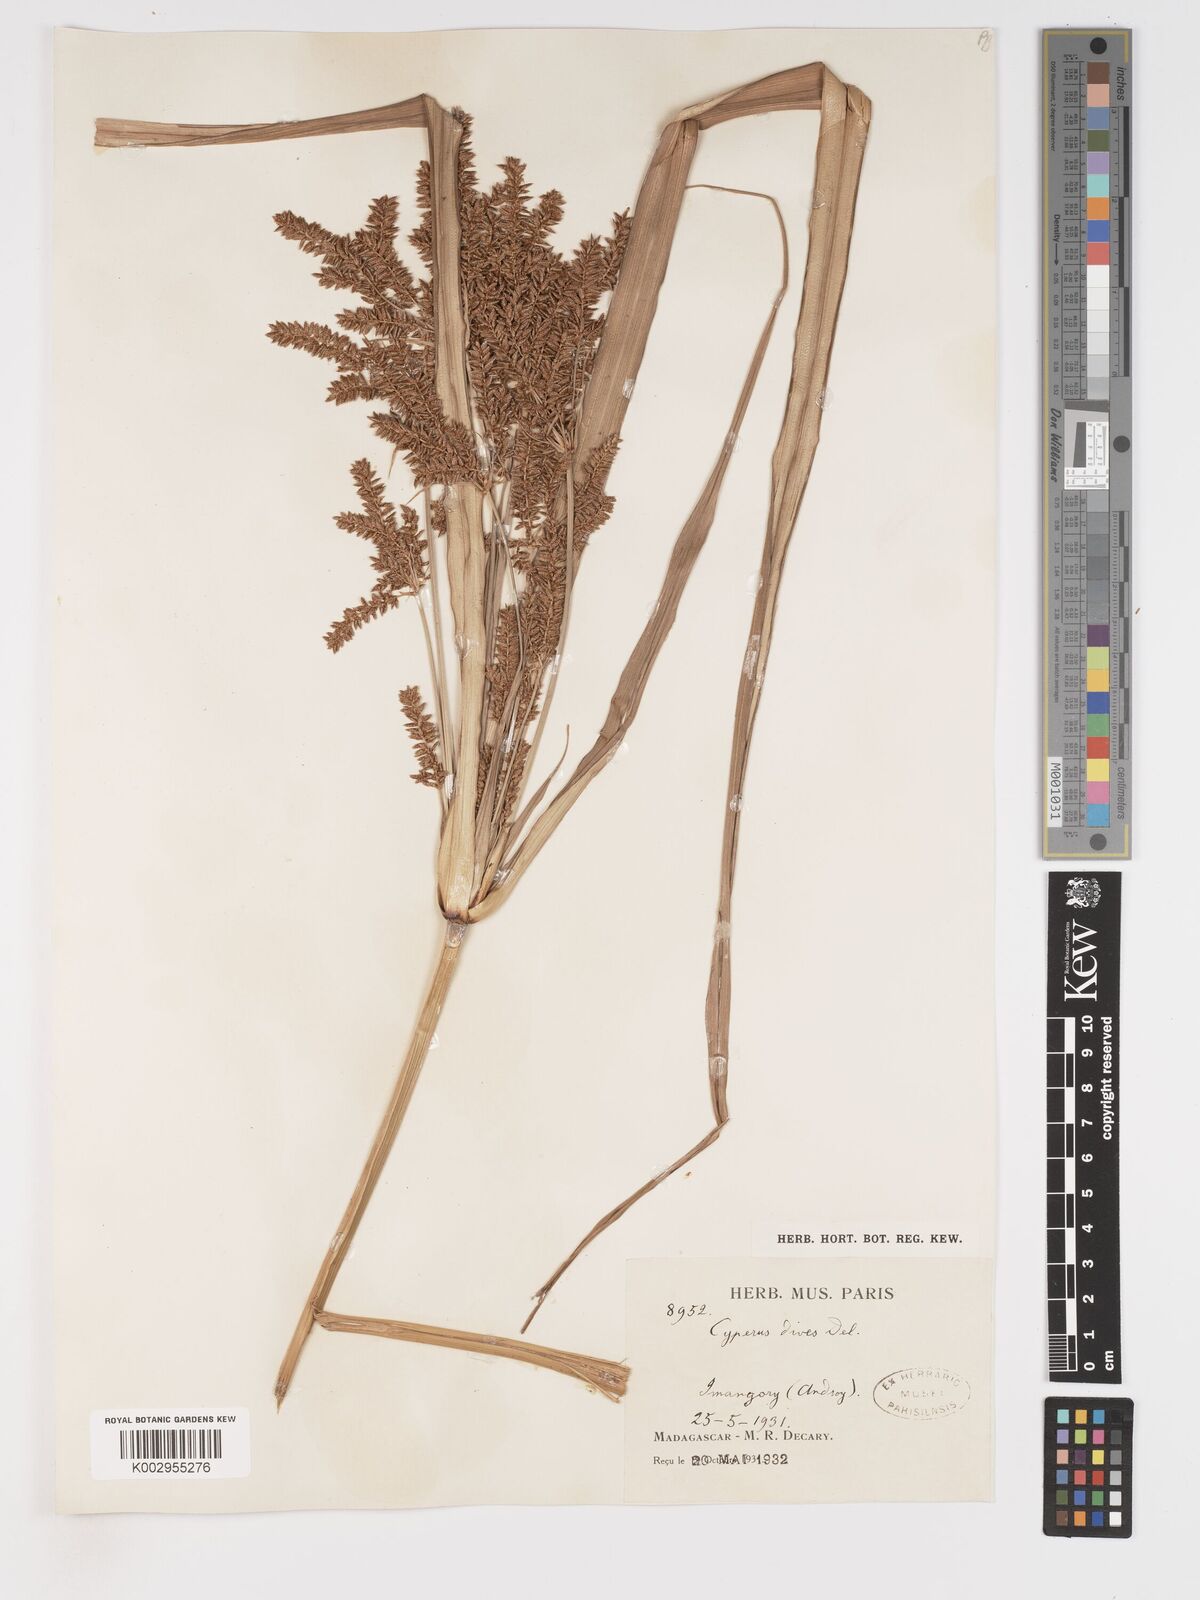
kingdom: Plantae
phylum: Tracheophyta
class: Liliopsida
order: Poales
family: Cyperaceae
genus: Cyperus
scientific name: Cyperus dives
